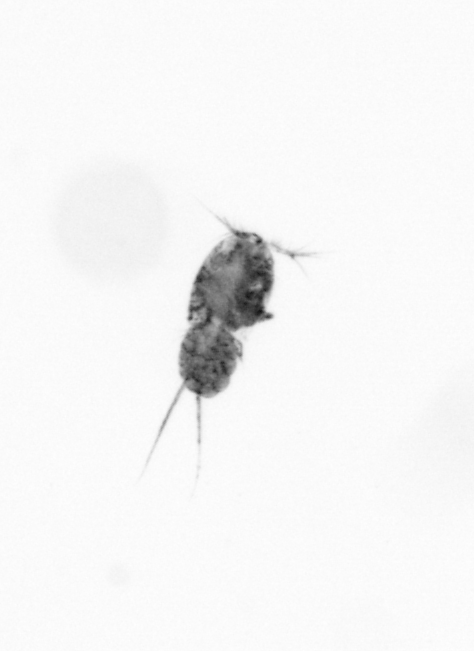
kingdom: Animalia
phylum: Arthropoda
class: Copepoda
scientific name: Copepoda
